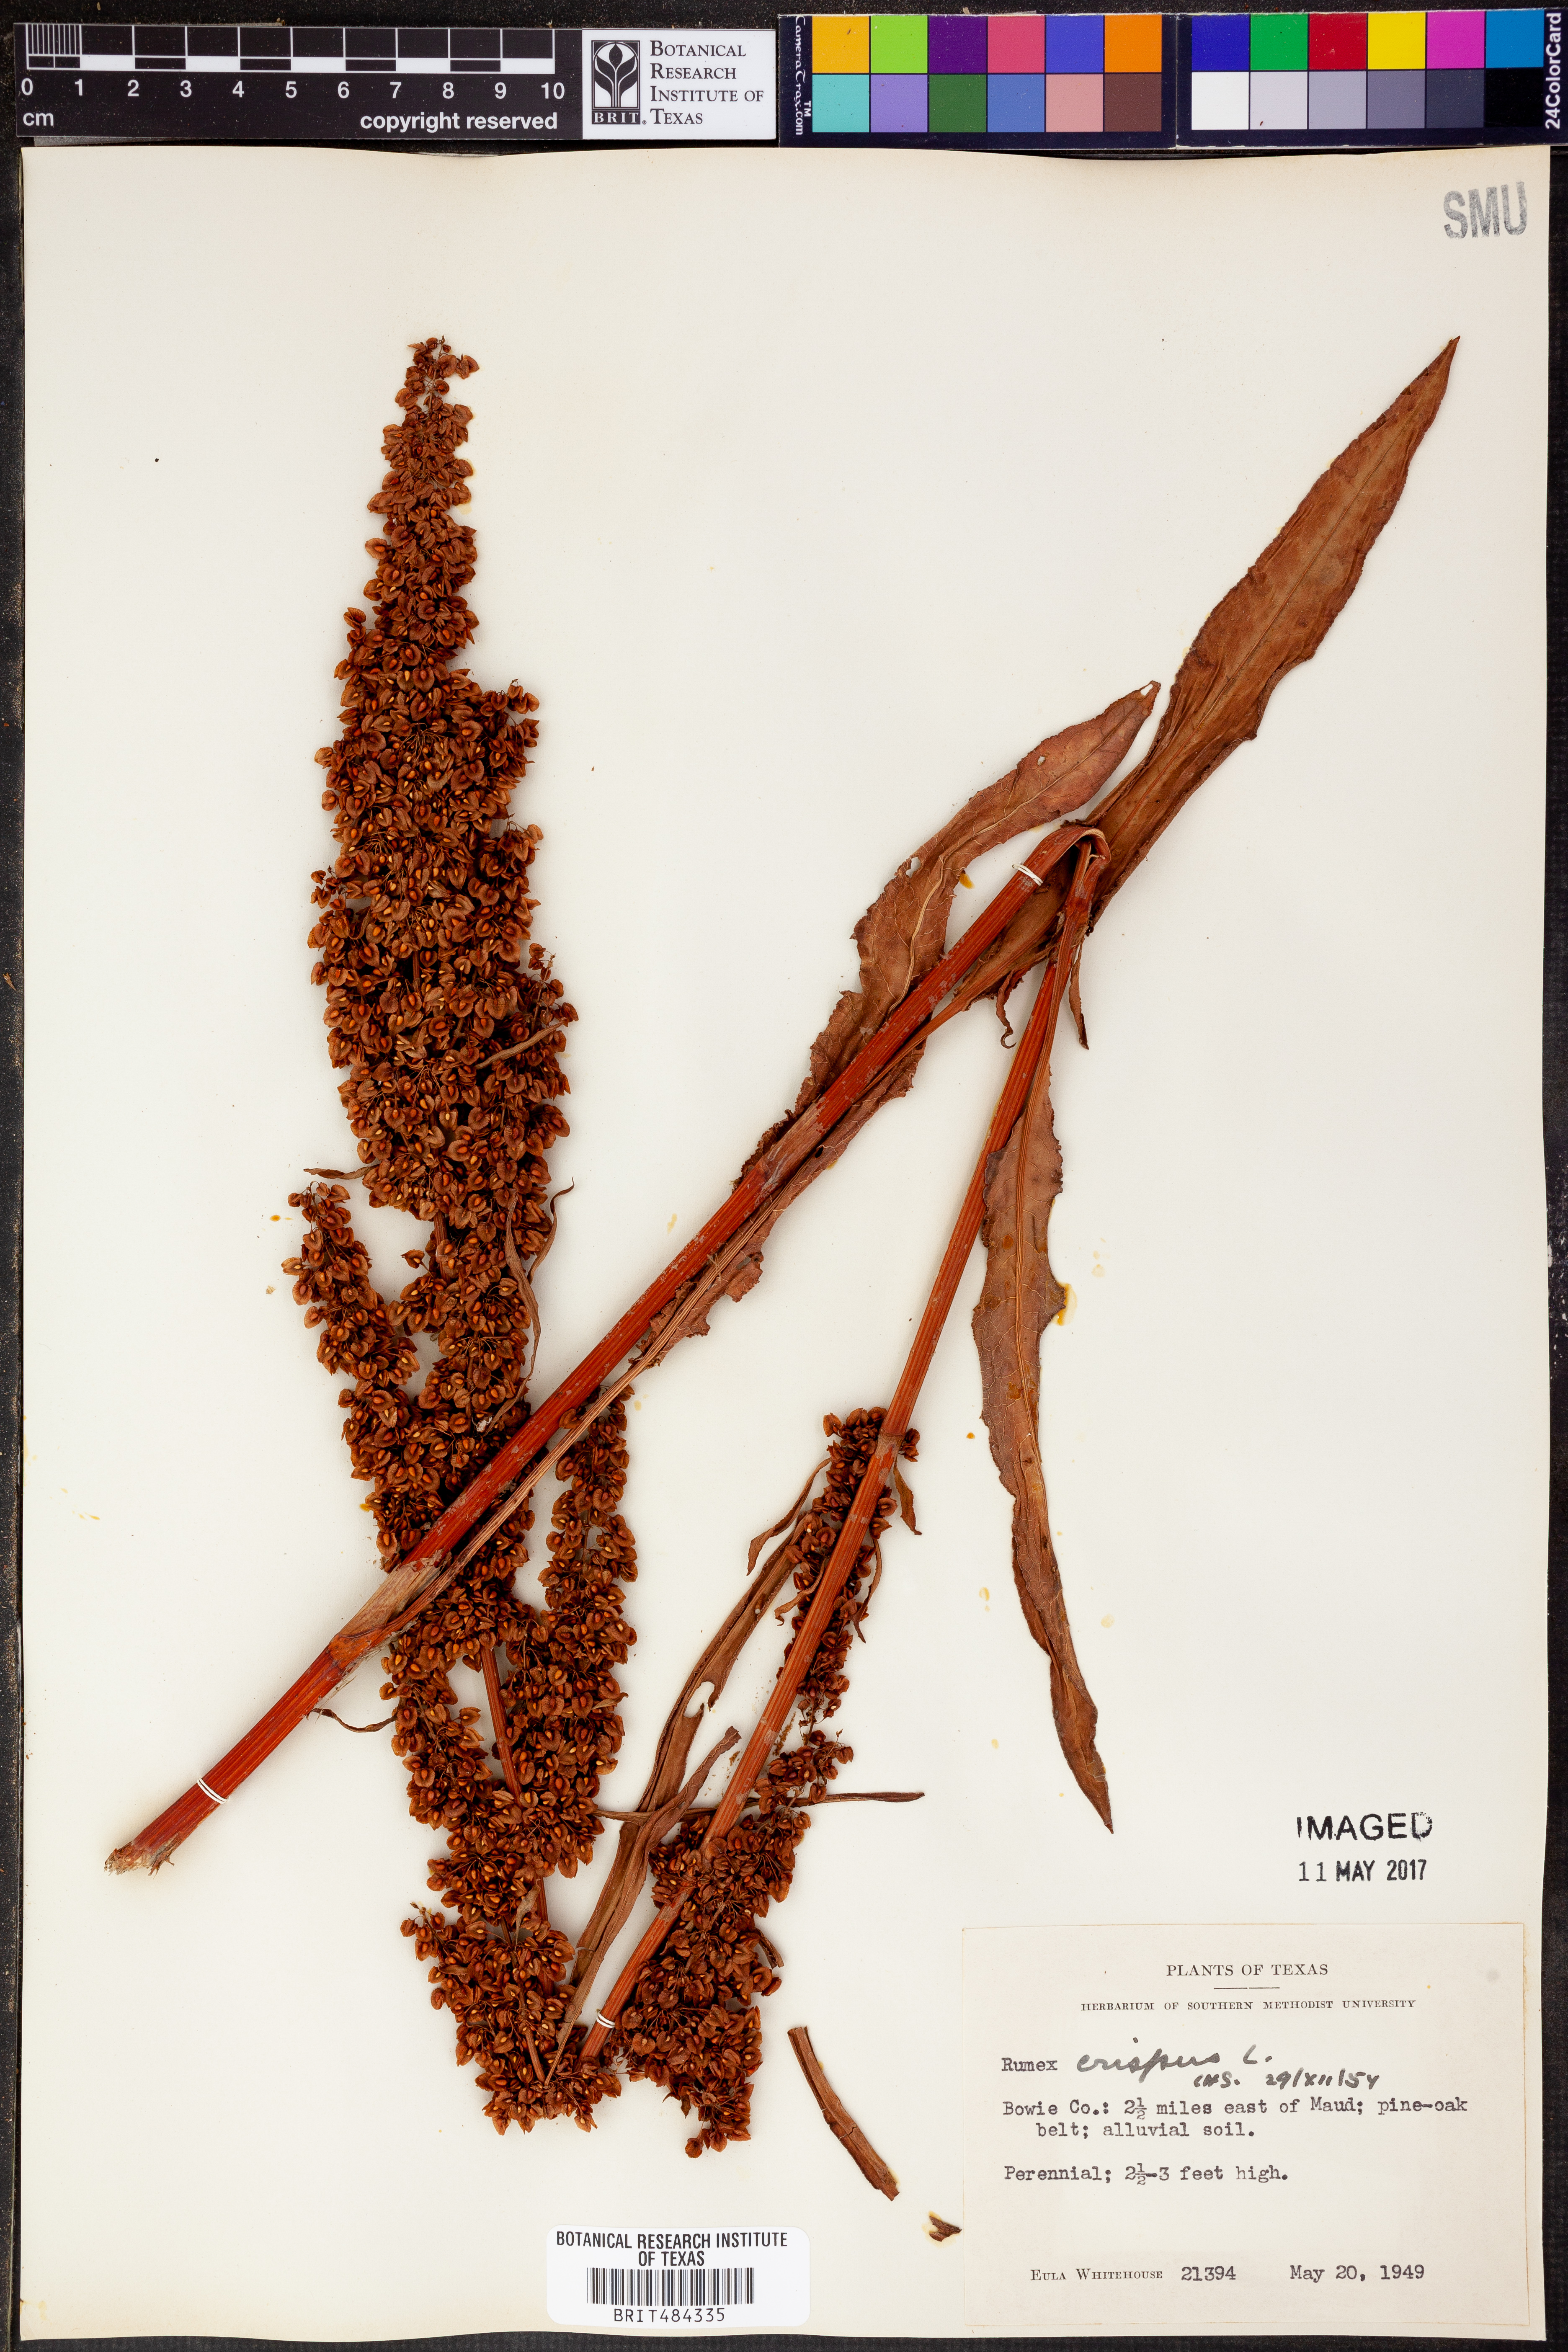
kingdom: Plantae
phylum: Tracheophyta
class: Magnoliopsida
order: Caryophyllales
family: Polygonaceae
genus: Rumex
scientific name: Rumex crispus
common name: Curled dock
